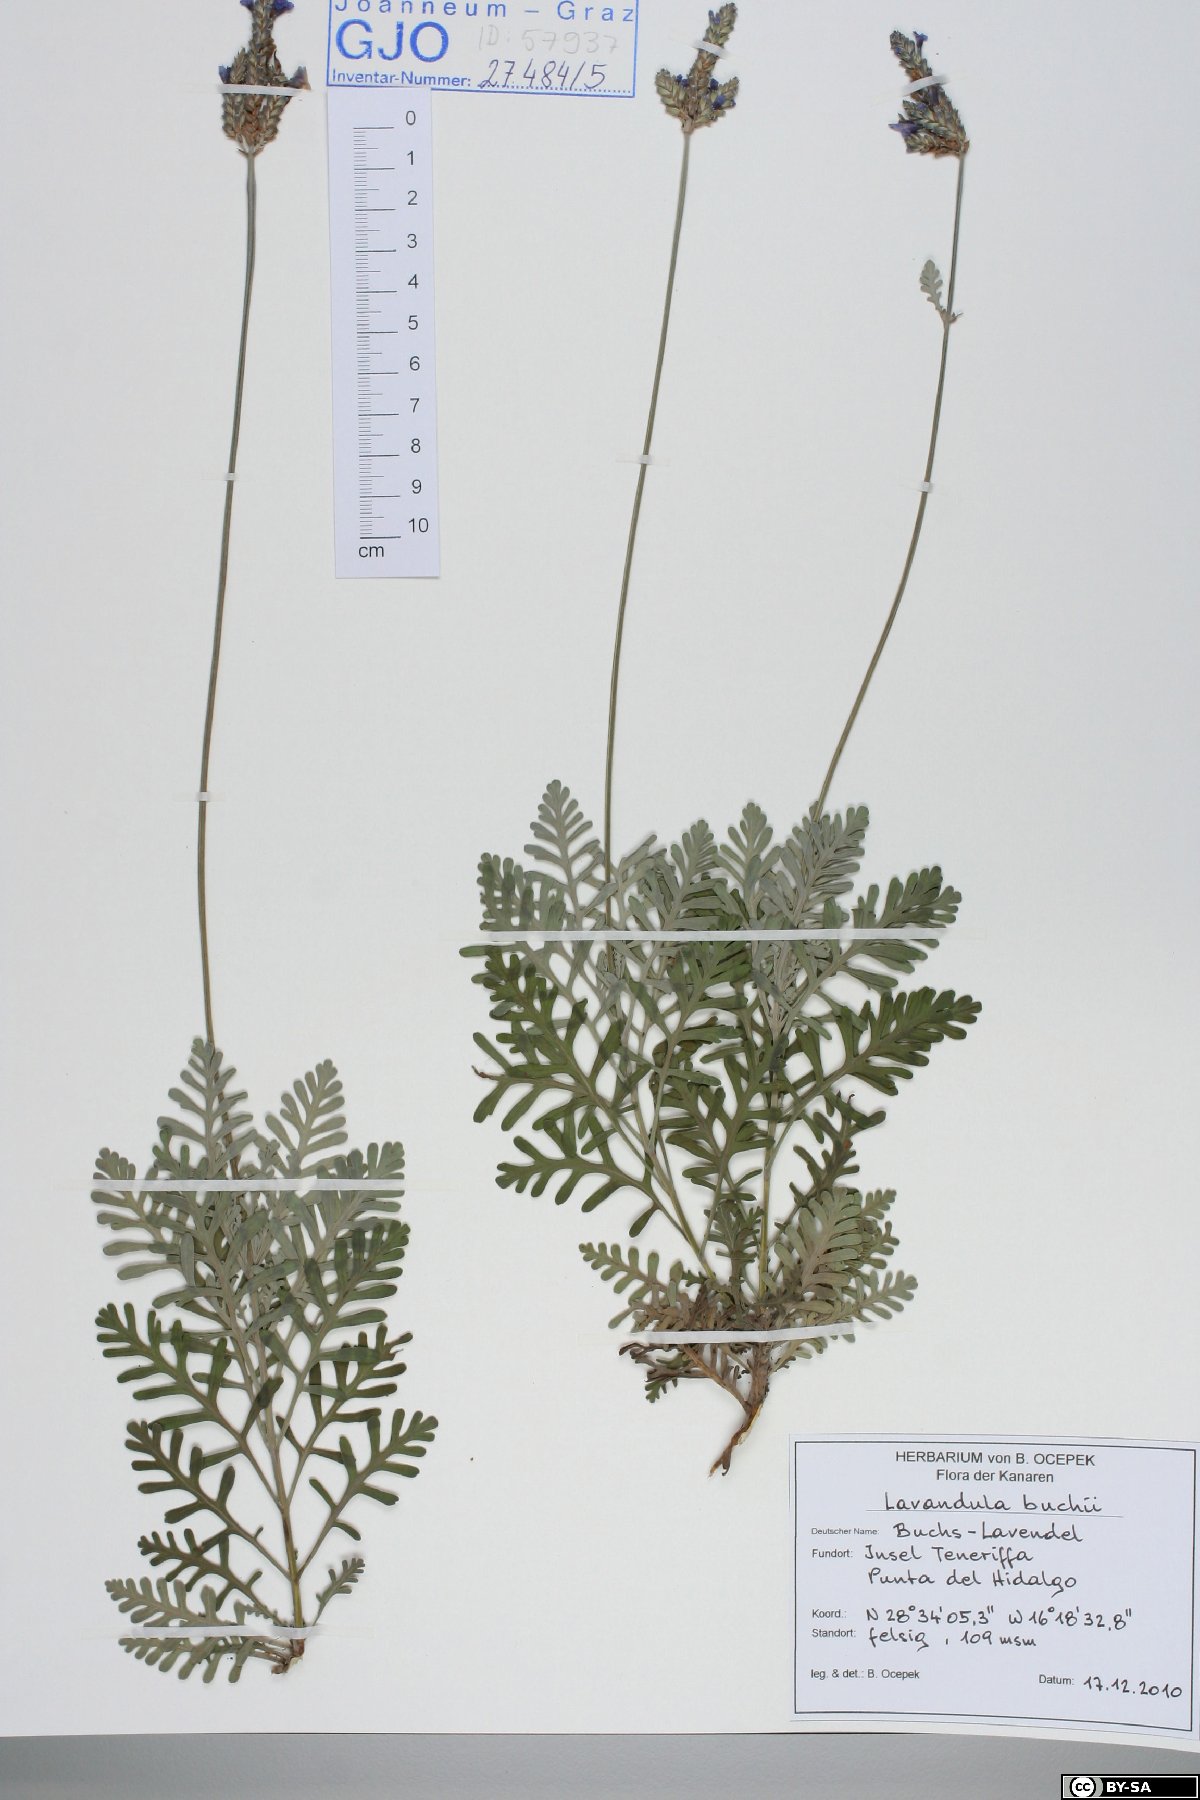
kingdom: Plantae
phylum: Tracheophyta
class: Magnoliopsida
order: Lamiales
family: Lamiaceae
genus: Lavandula
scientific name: Lavandula buchii
